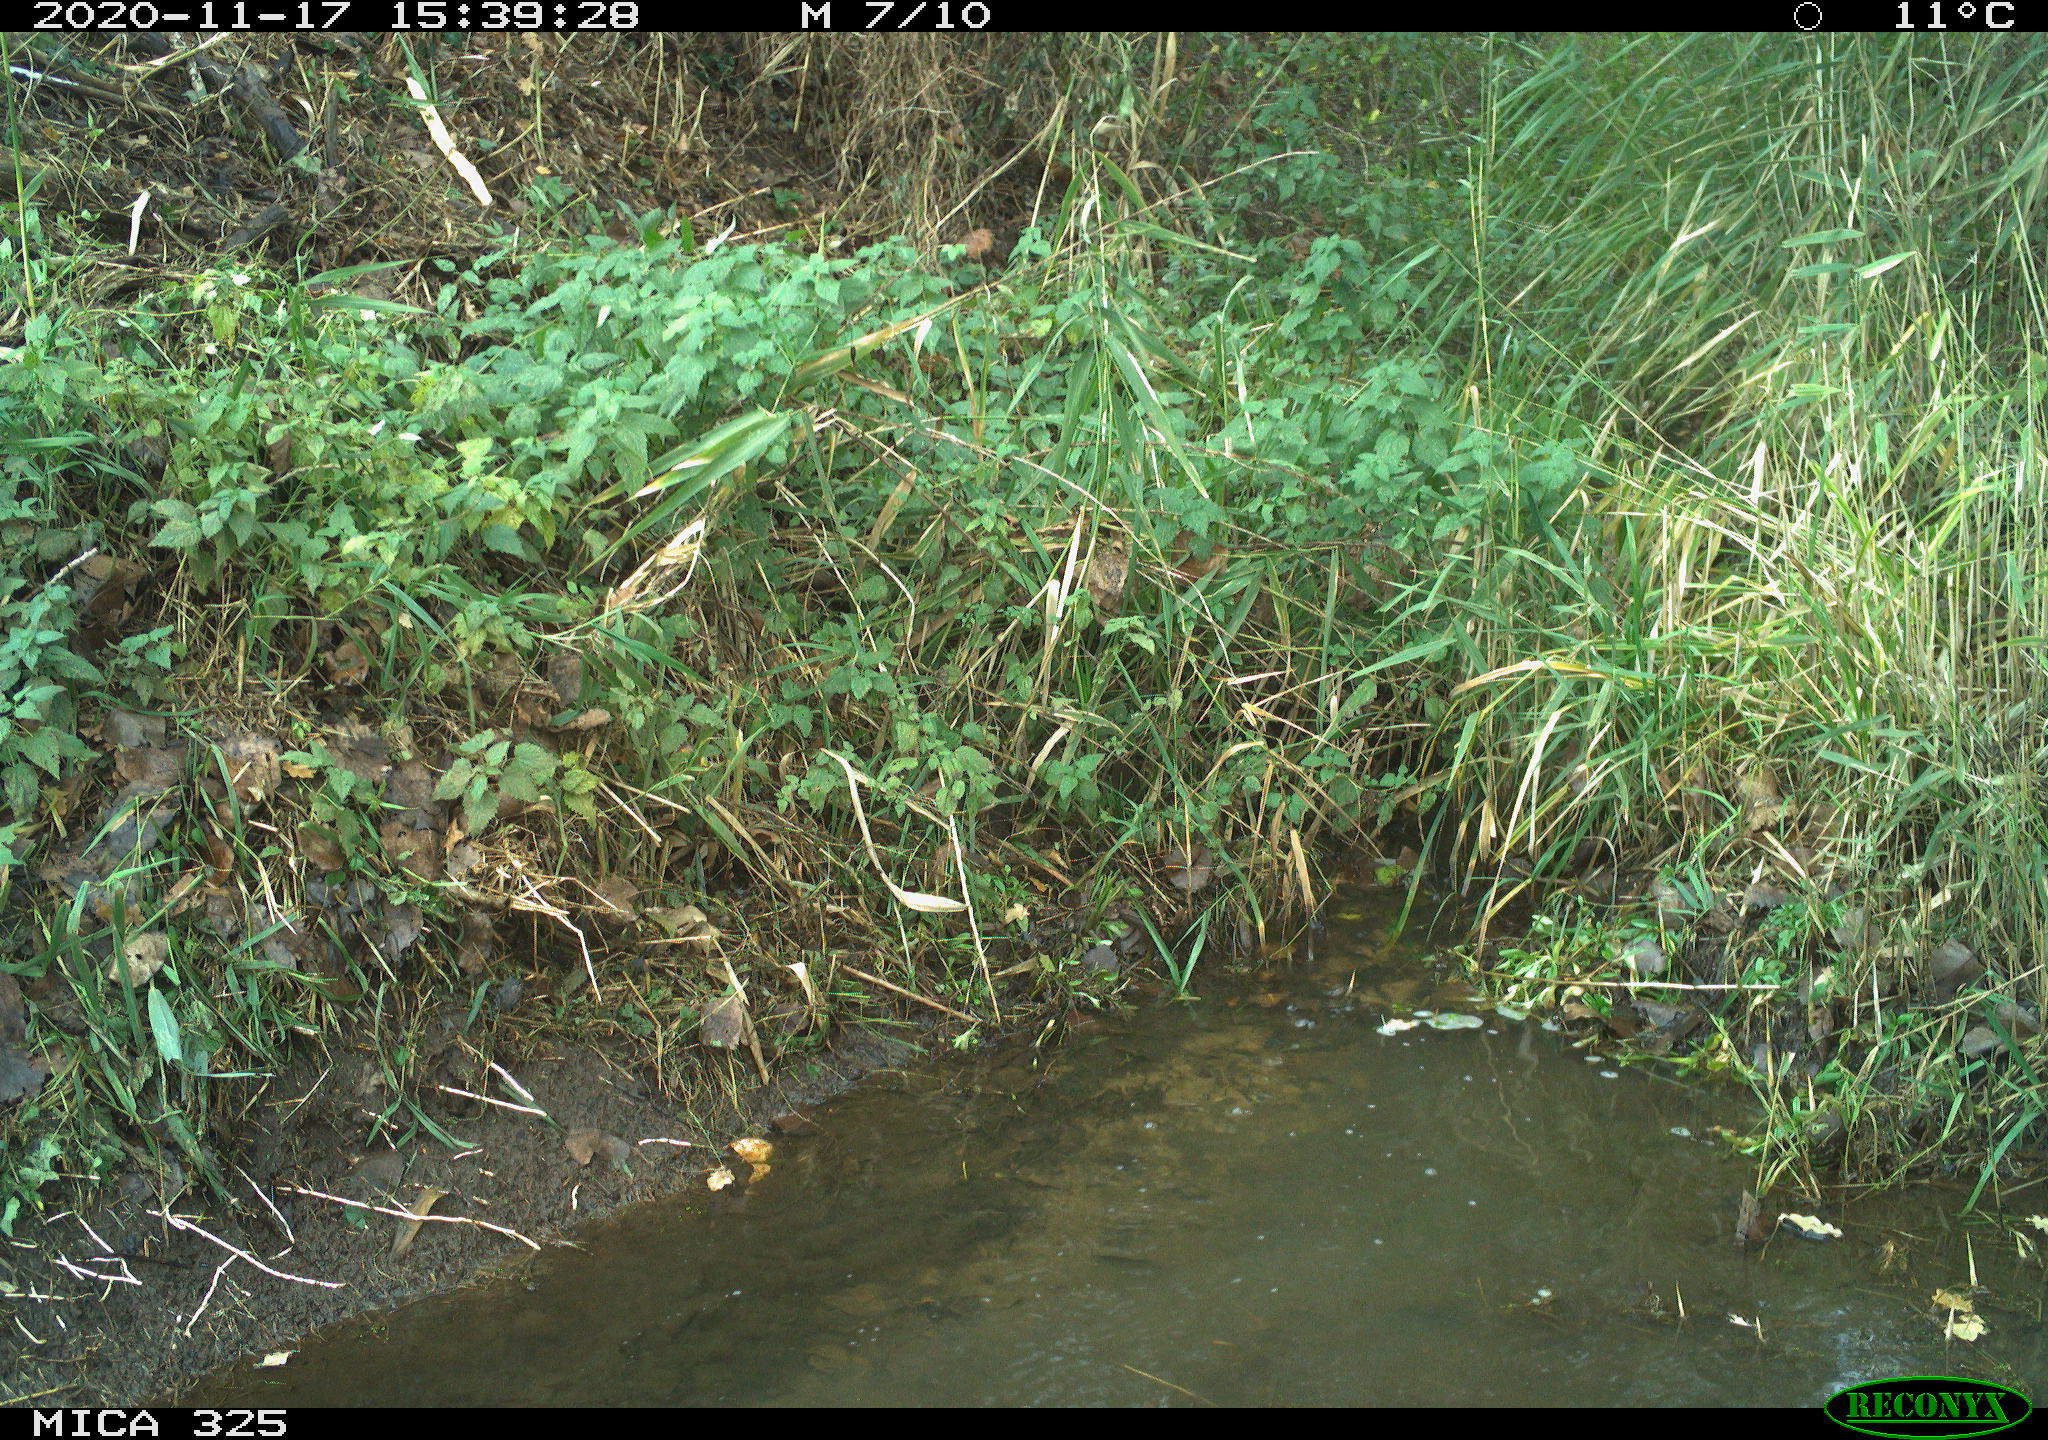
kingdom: Animalia
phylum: Chordata
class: Aves
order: Pelecaniformes
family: Ardeidae
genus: Ardea
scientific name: Ardea cinerea
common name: Grey heron
